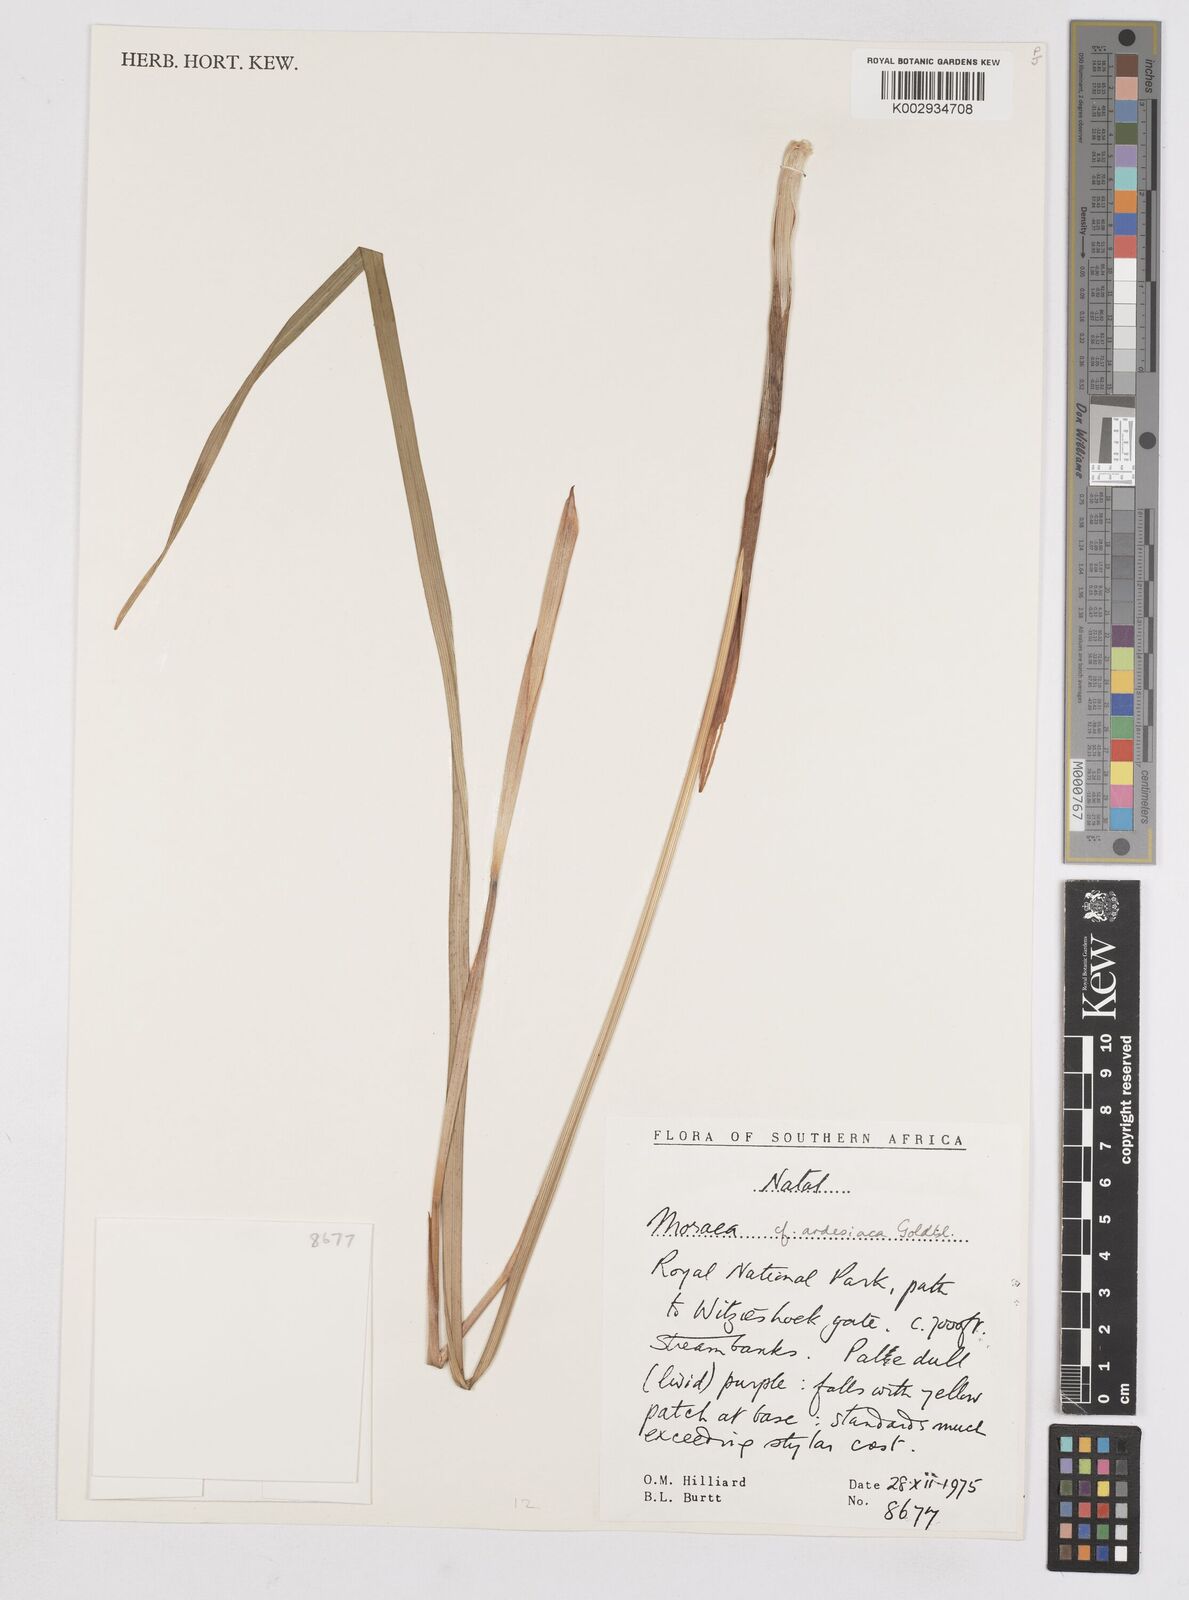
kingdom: Plantae
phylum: Tracheophyta
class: Liliopsida
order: Asparagales
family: Iridaceae
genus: Moraea
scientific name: Moraea ardesiaca
